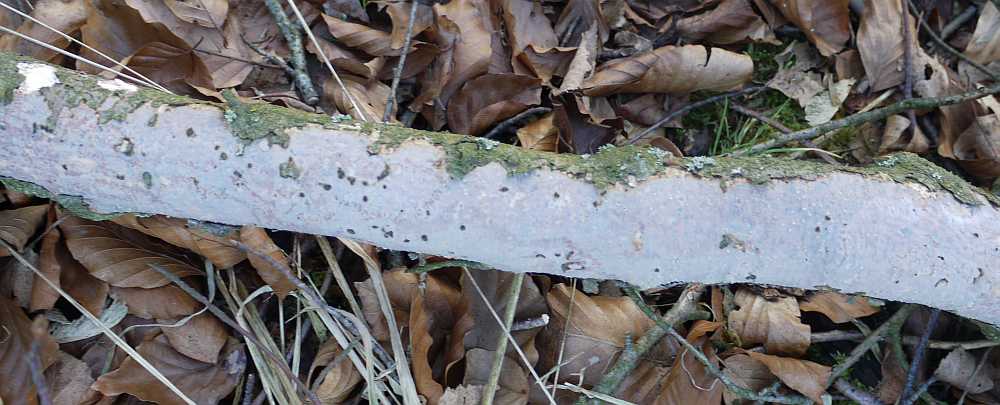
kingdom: Fungi
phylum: Basidiomycota
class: Agaricomycetes
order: Corticiales
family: Vuilleminiaceae
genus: Vuilleminia
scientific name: Vuilleminia comedens
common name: almindelig barksprænger
